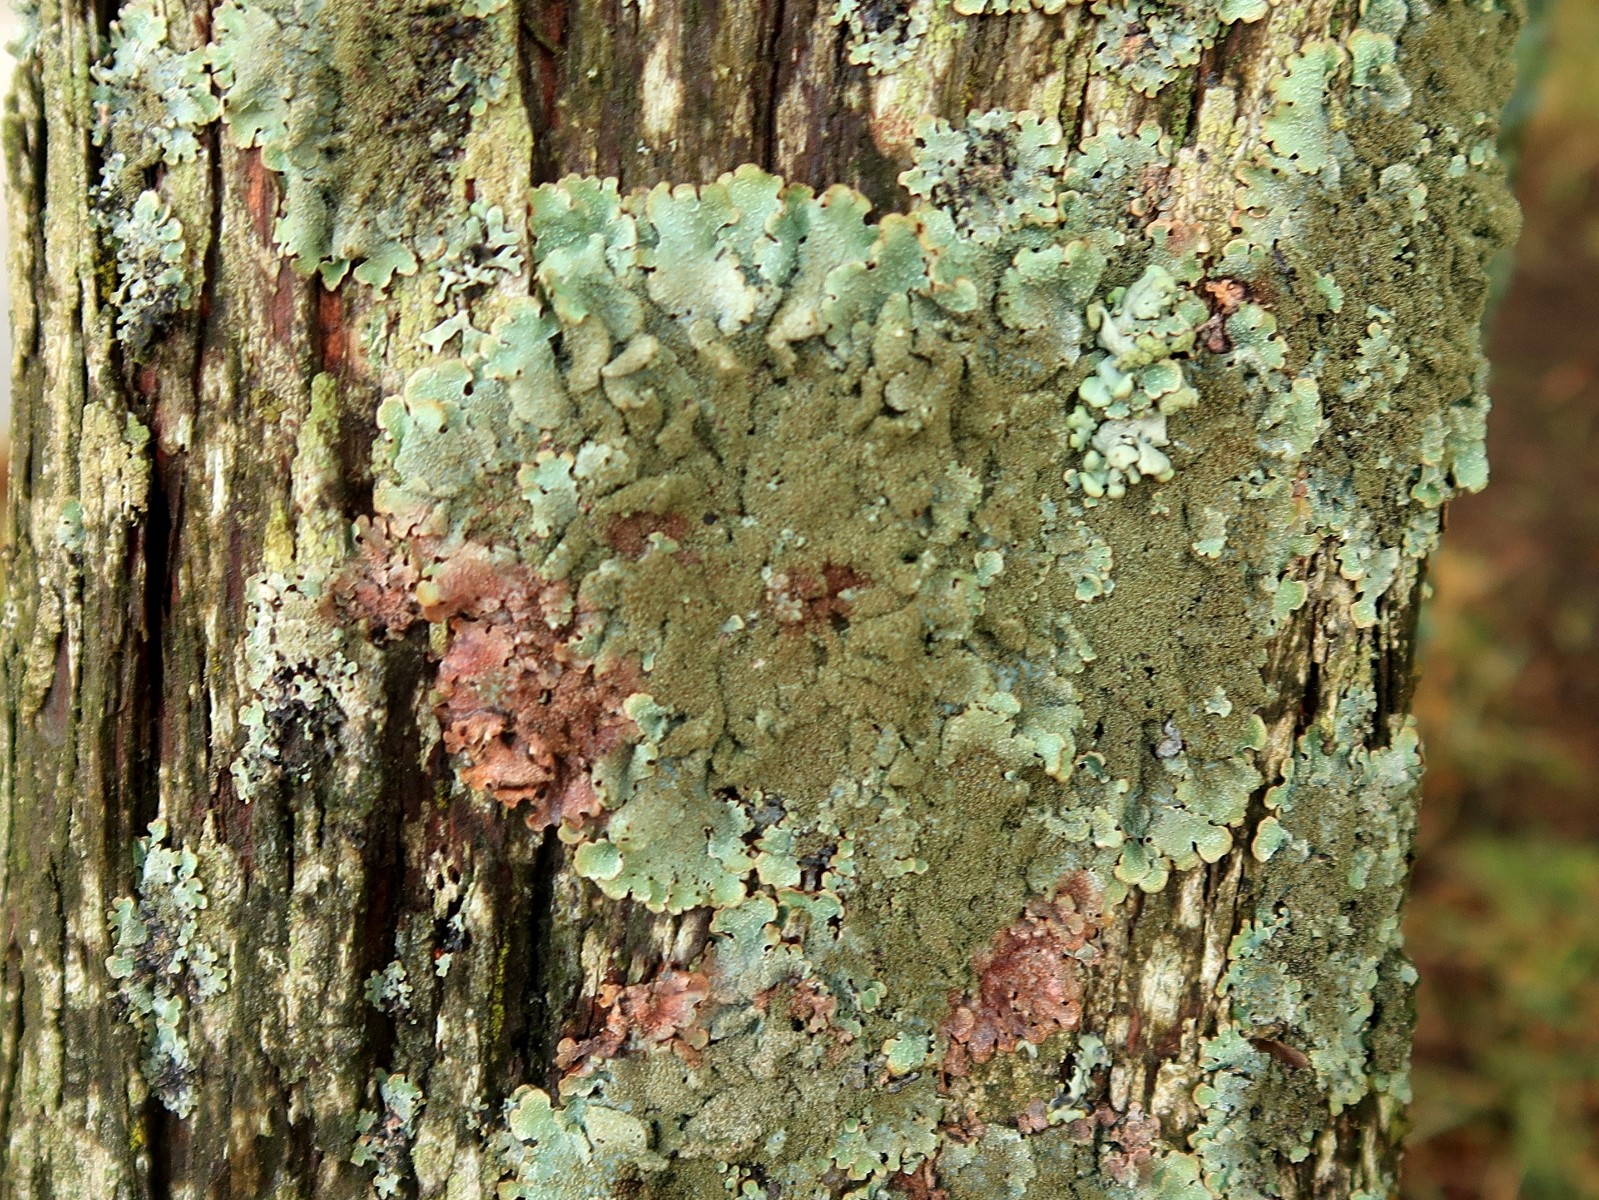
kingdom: Fungi
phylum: Ascomycota
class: Lecanoromycetes
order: Lecanorales
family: Parmeliaceae
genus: Parmelia
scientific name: Parmelia saxatilis
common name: farve-skållav
